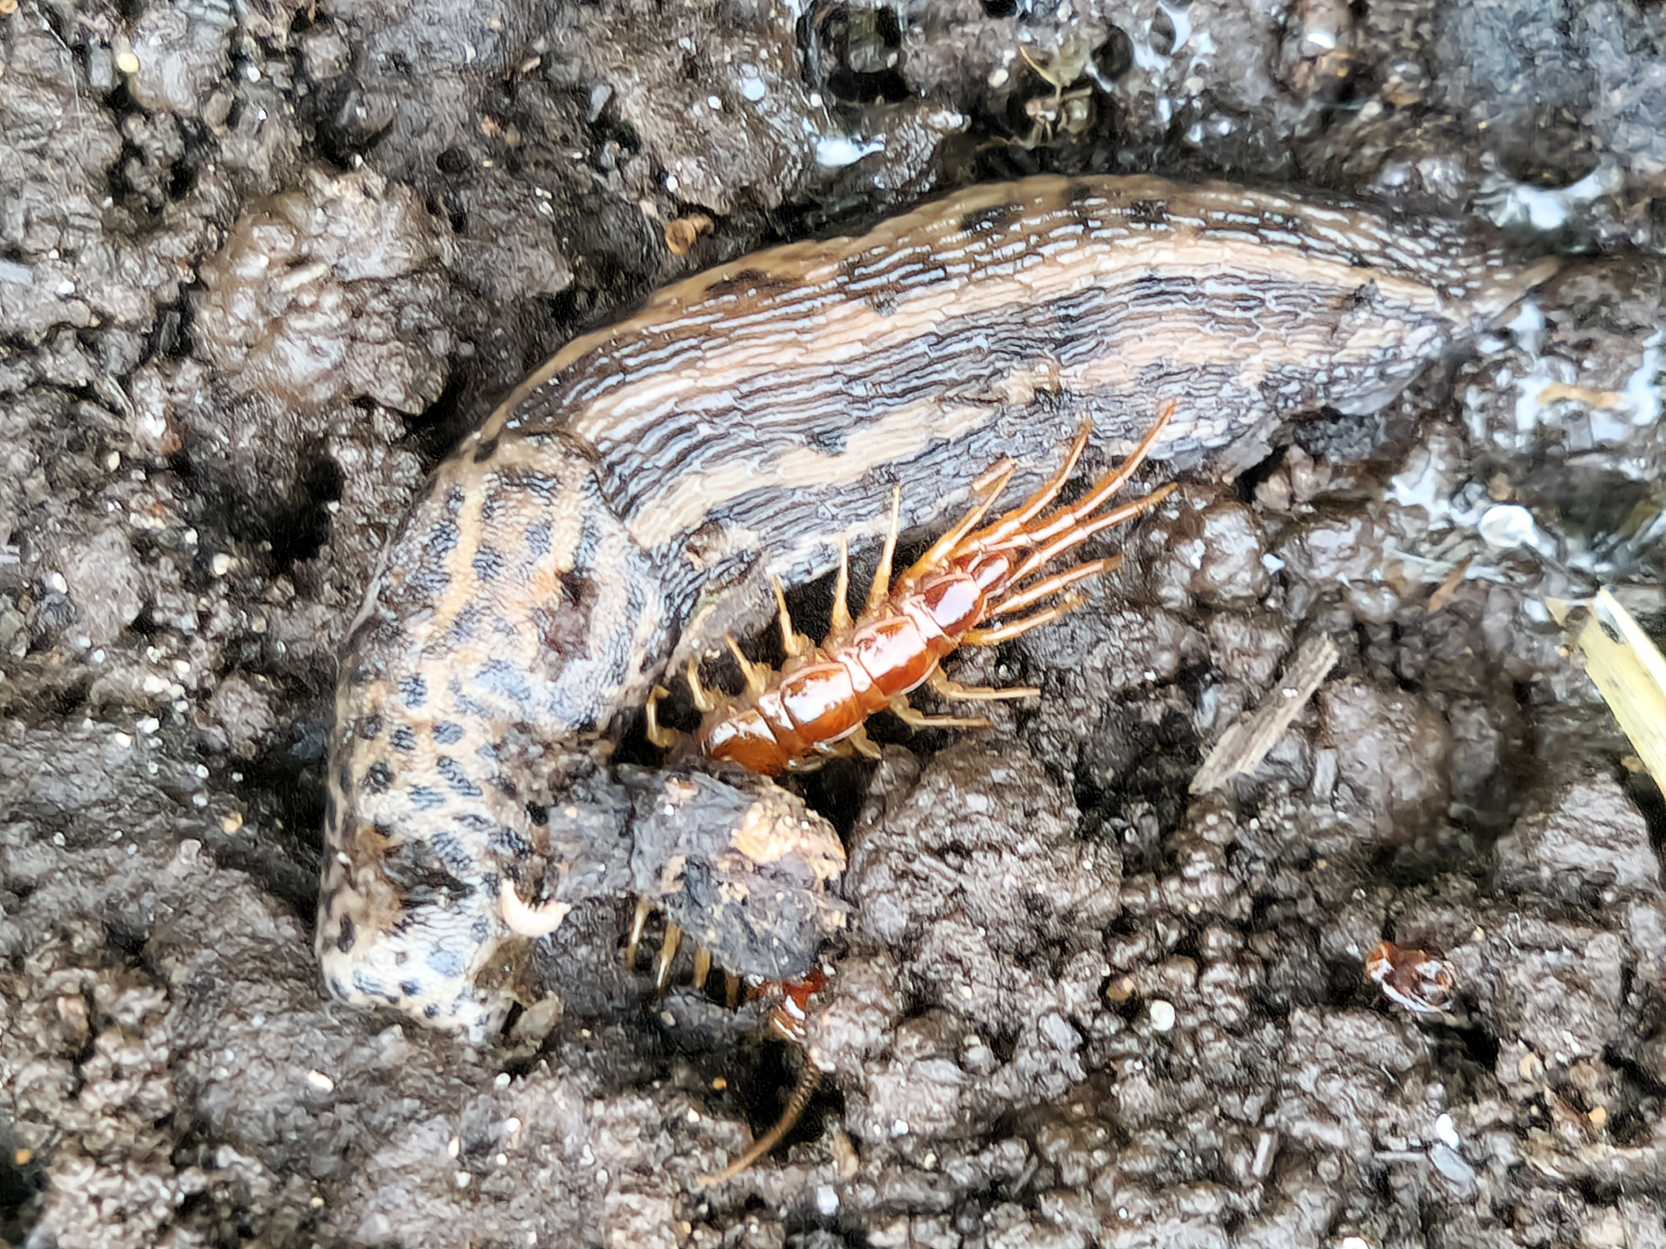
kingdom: Animalia
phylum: Mollusca
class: Gastropoda
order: Stylommatophora
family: Limacidae
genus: Limax
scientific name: Limax maximus
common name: Pantersnegl
